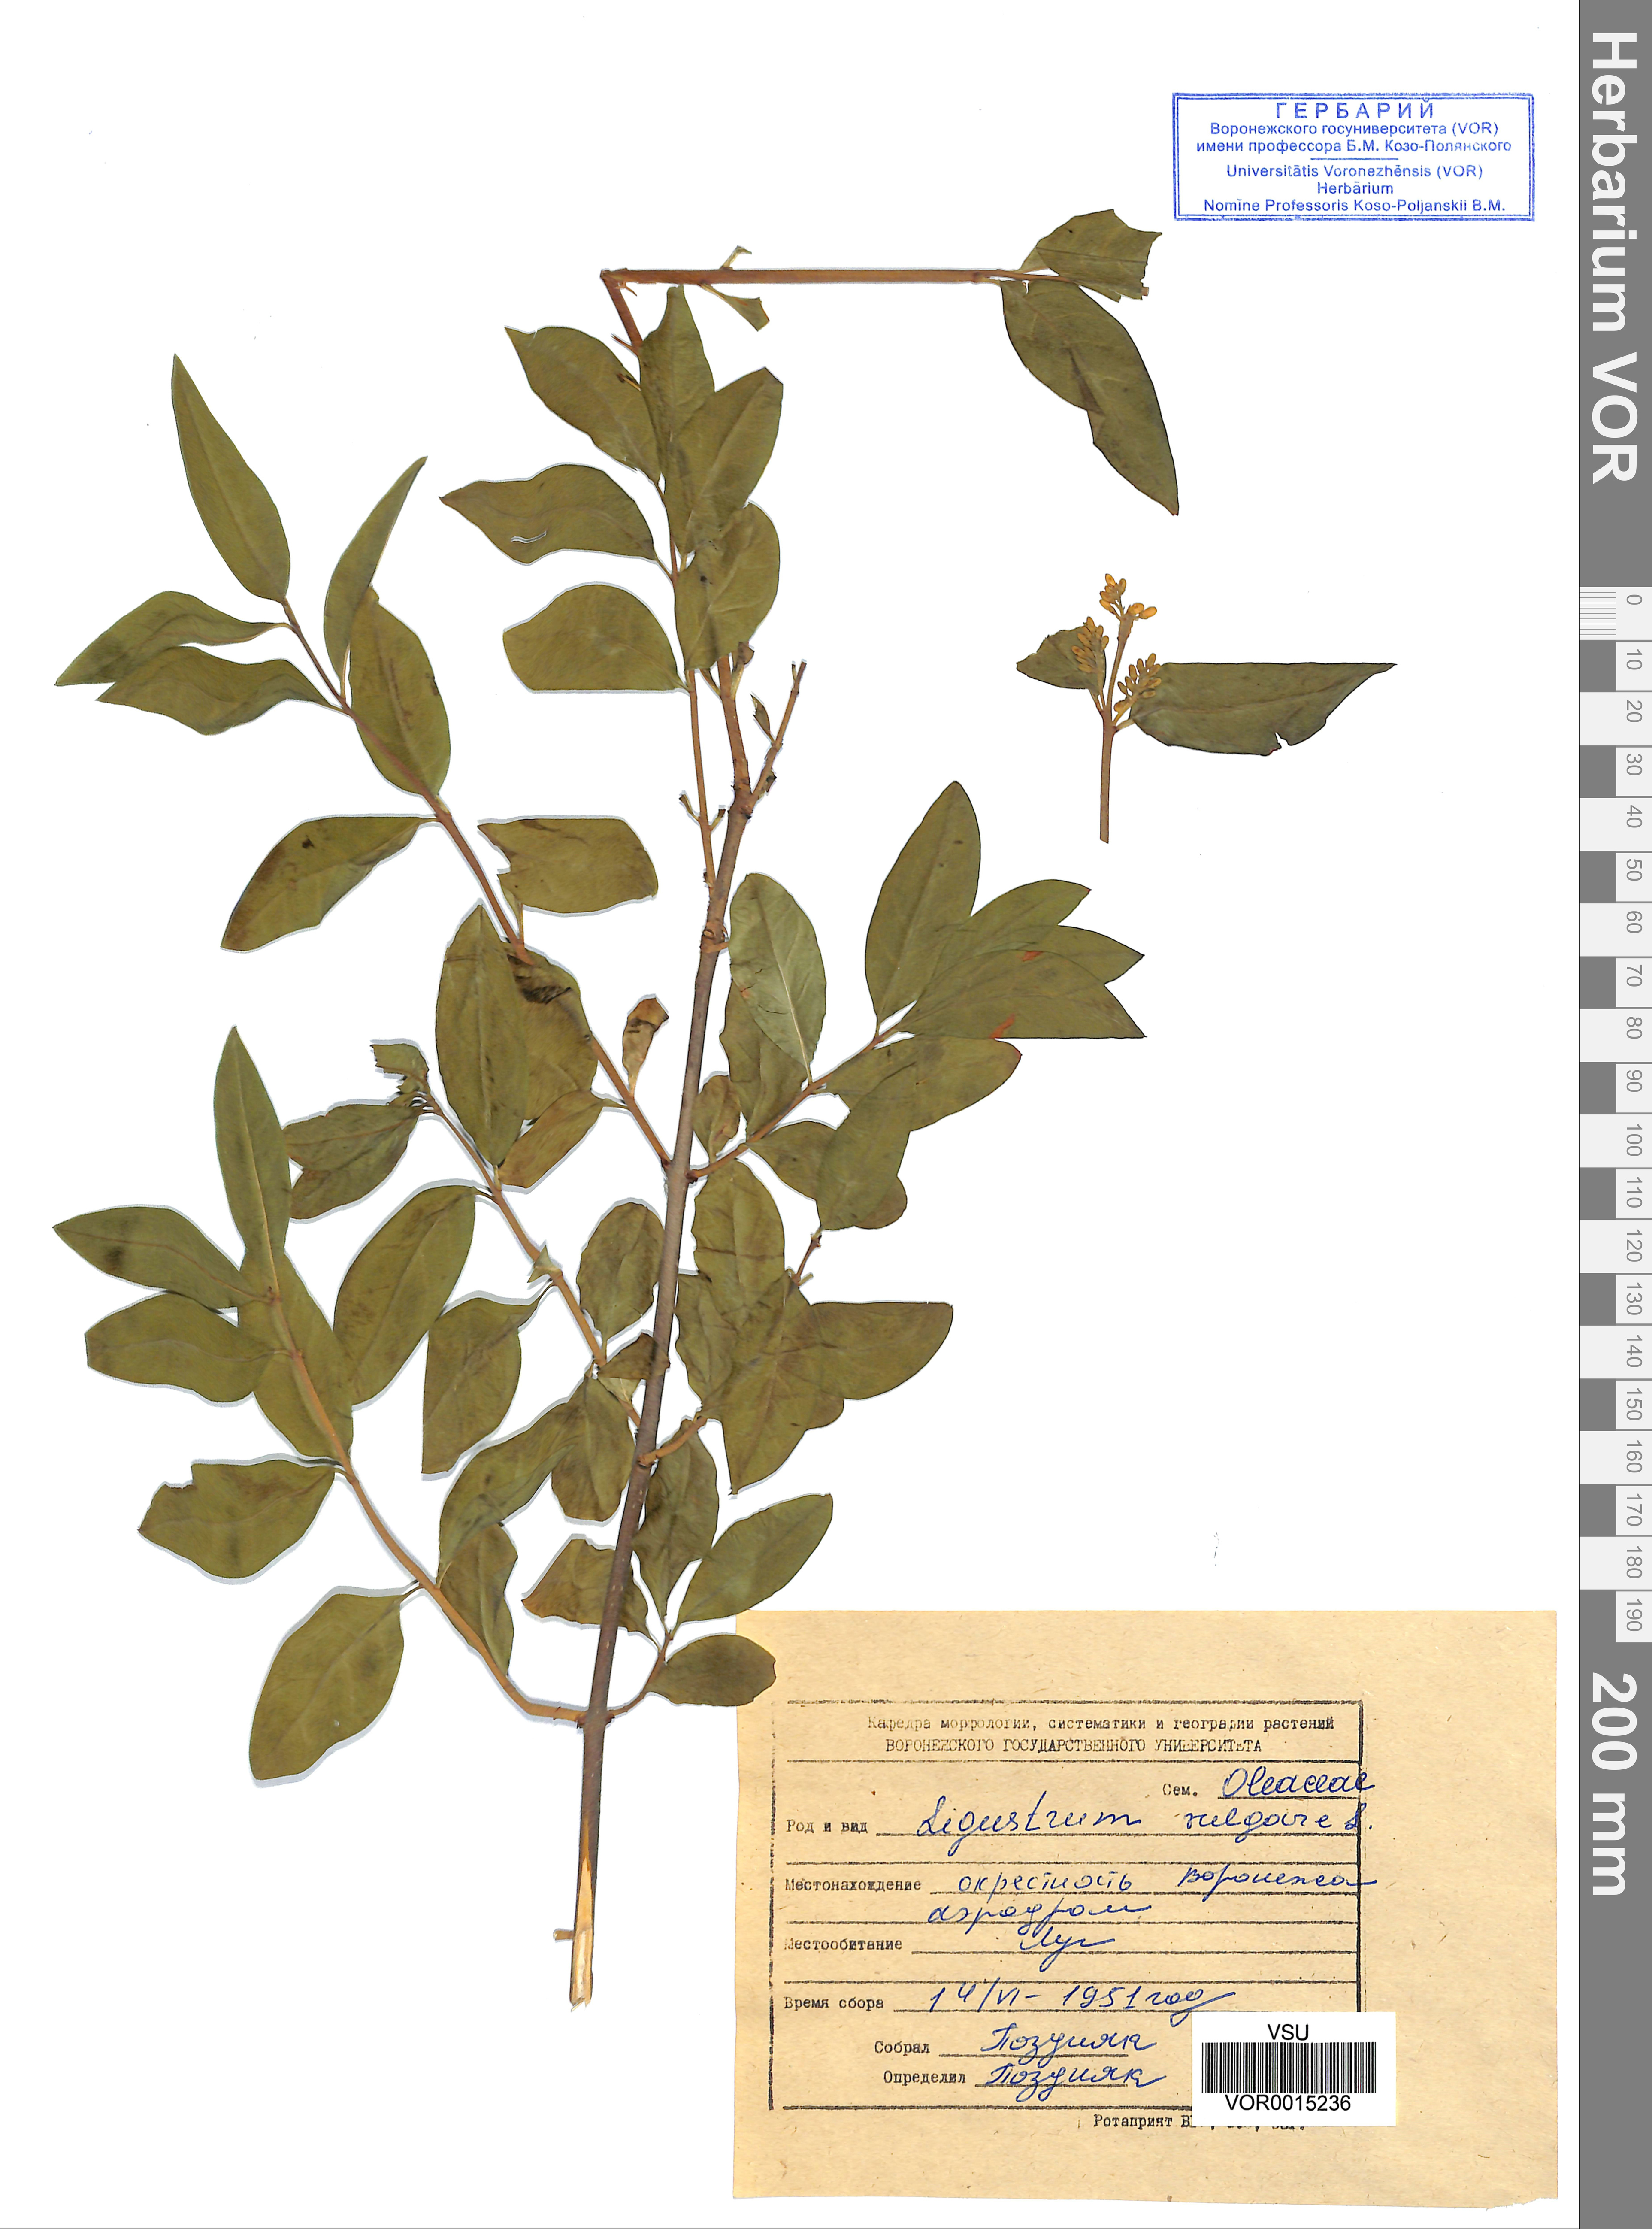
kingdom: Plantae
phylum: Tracheophyta
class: Magnoliopsida
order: Lamiales
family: Oleaceae
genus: Ligustrum
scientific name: Ligustrum vulgare
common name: Wild privet
